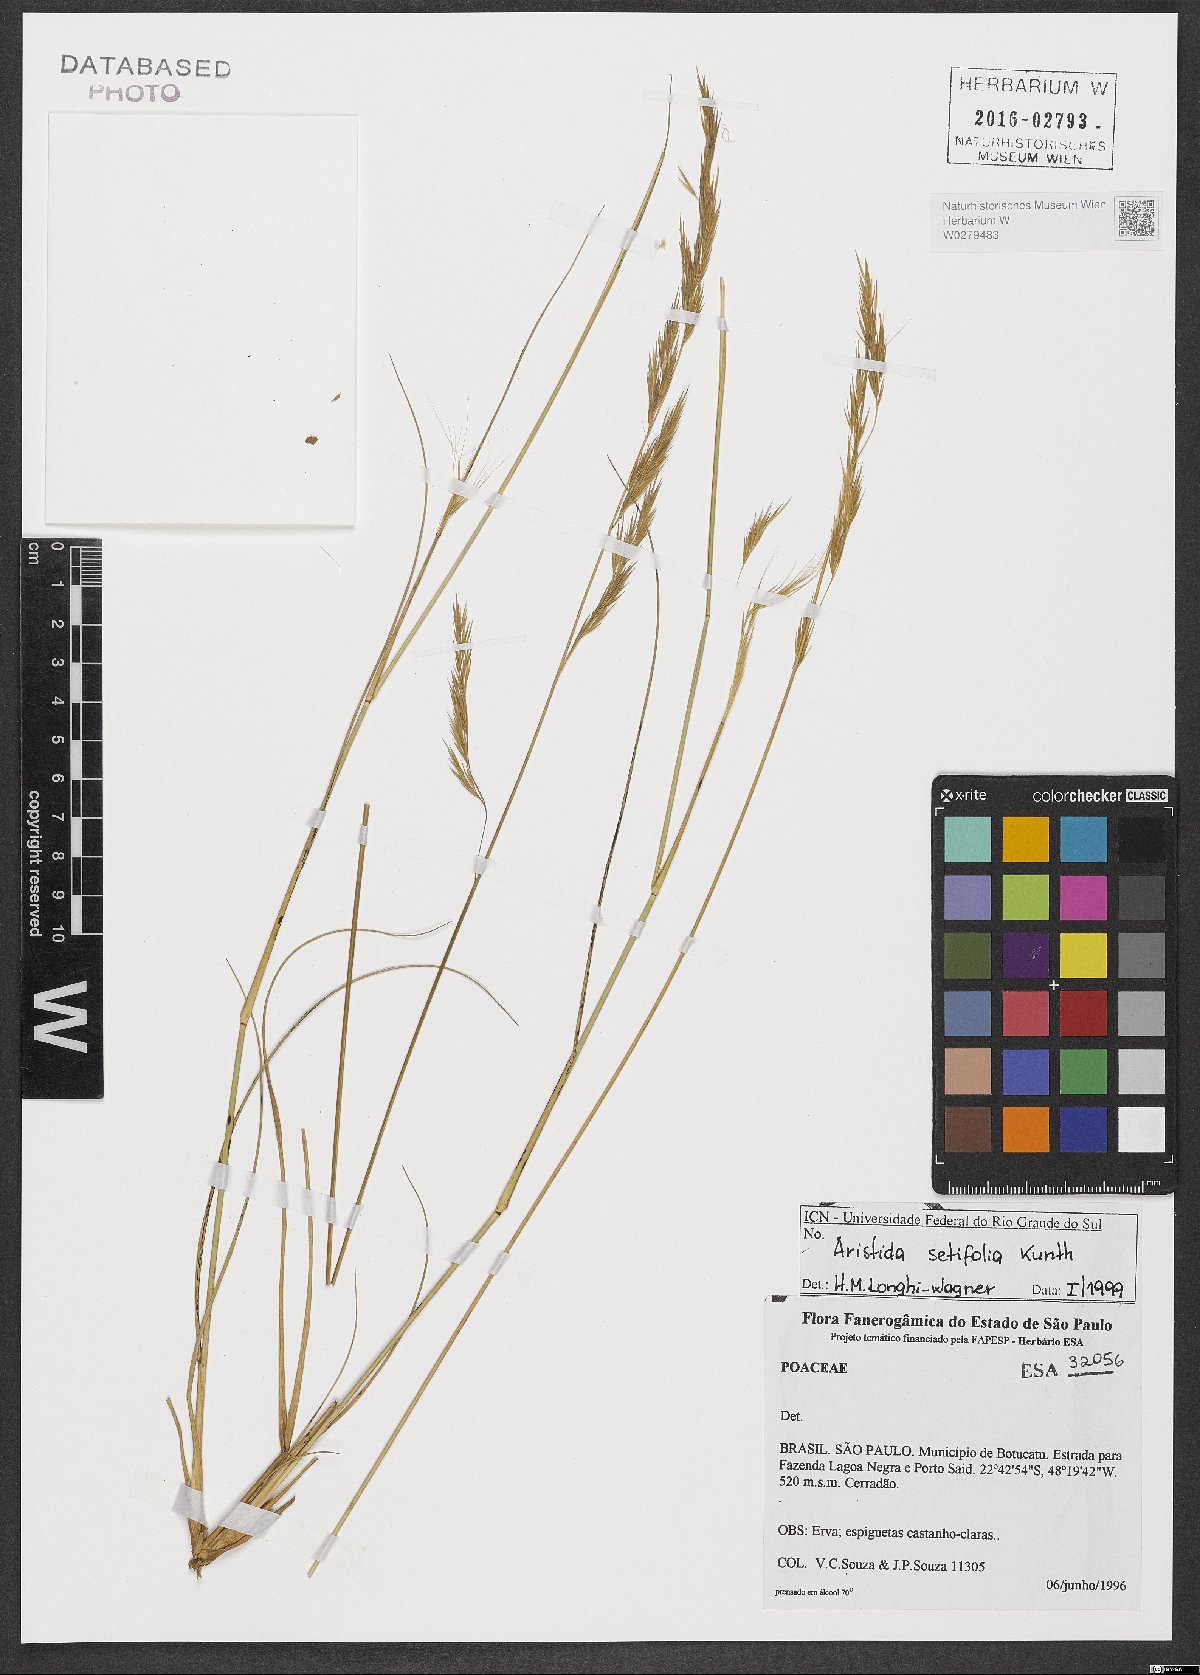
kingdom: Plantae
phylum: Tracheophyta
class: Liliopsida
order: Poales
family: Poaceae
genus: Aristida
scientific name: Aristida setifolia
